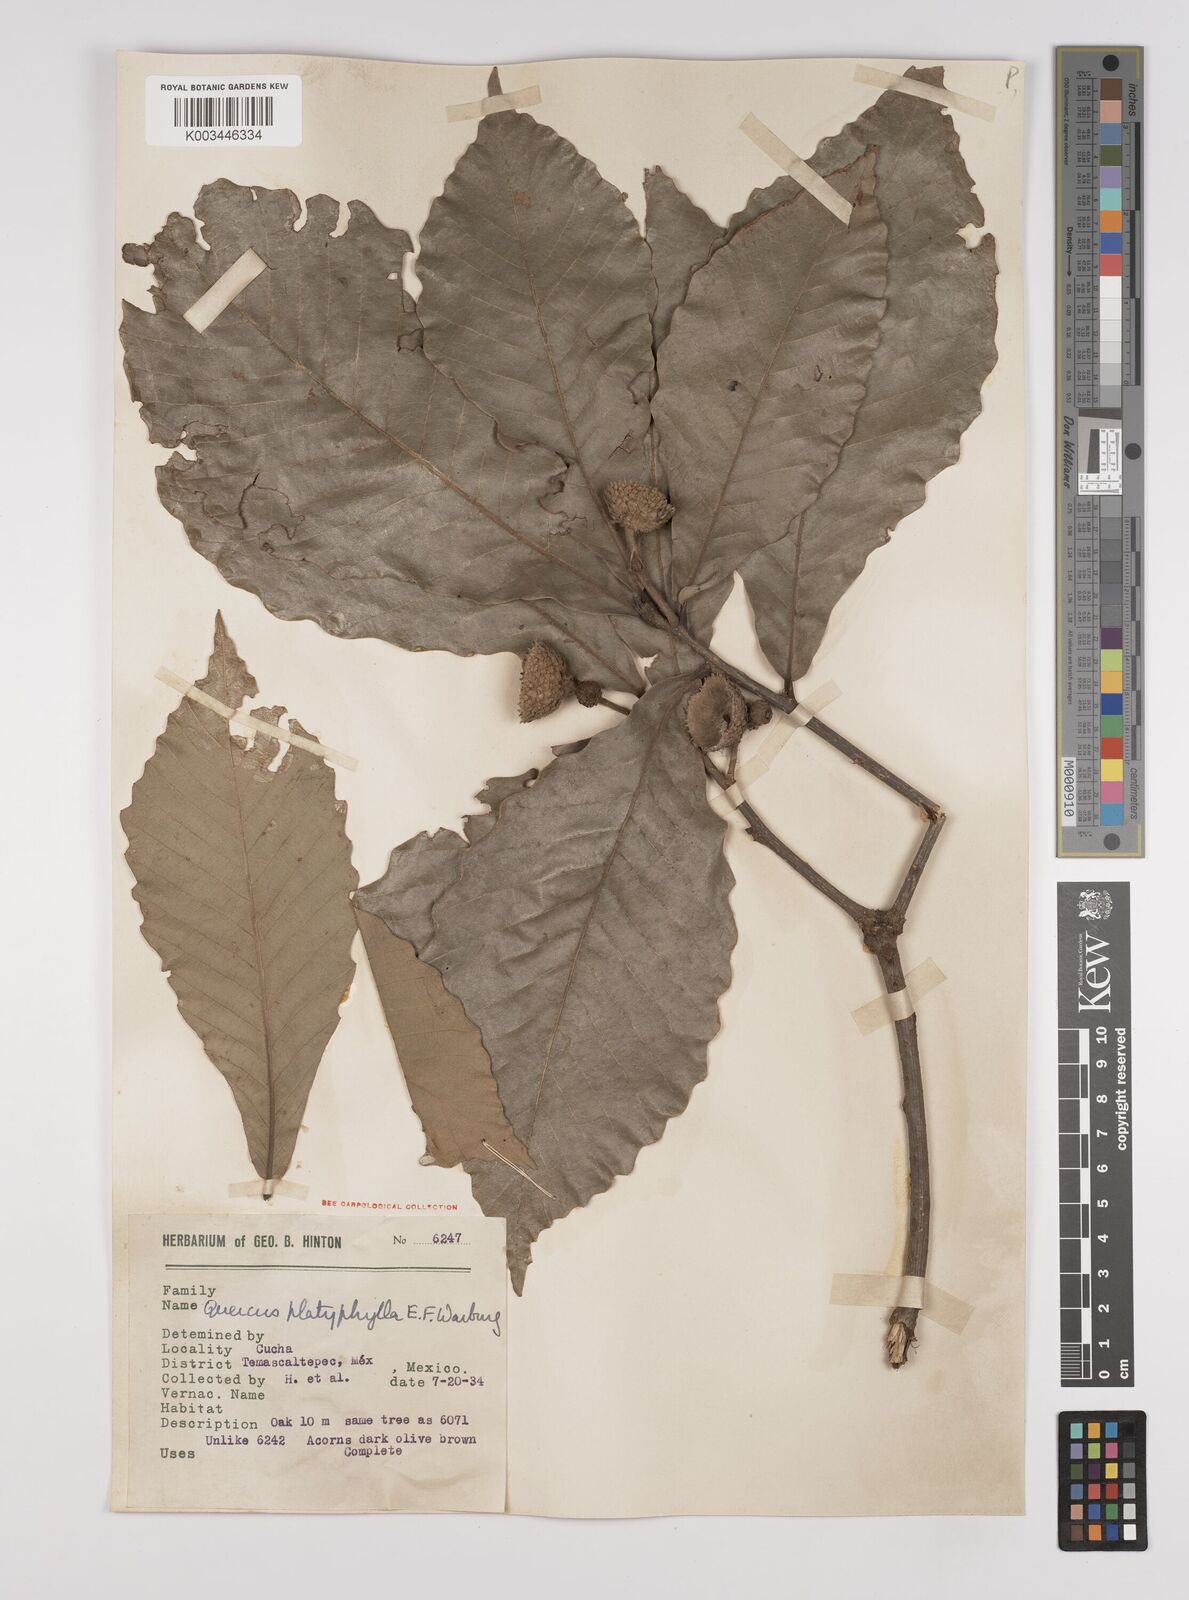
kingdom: Plantae
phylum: Tracheophyta
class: Magnoliopsida
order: Fagales
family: Fagaceae
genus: Quercus
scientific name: Quercus
